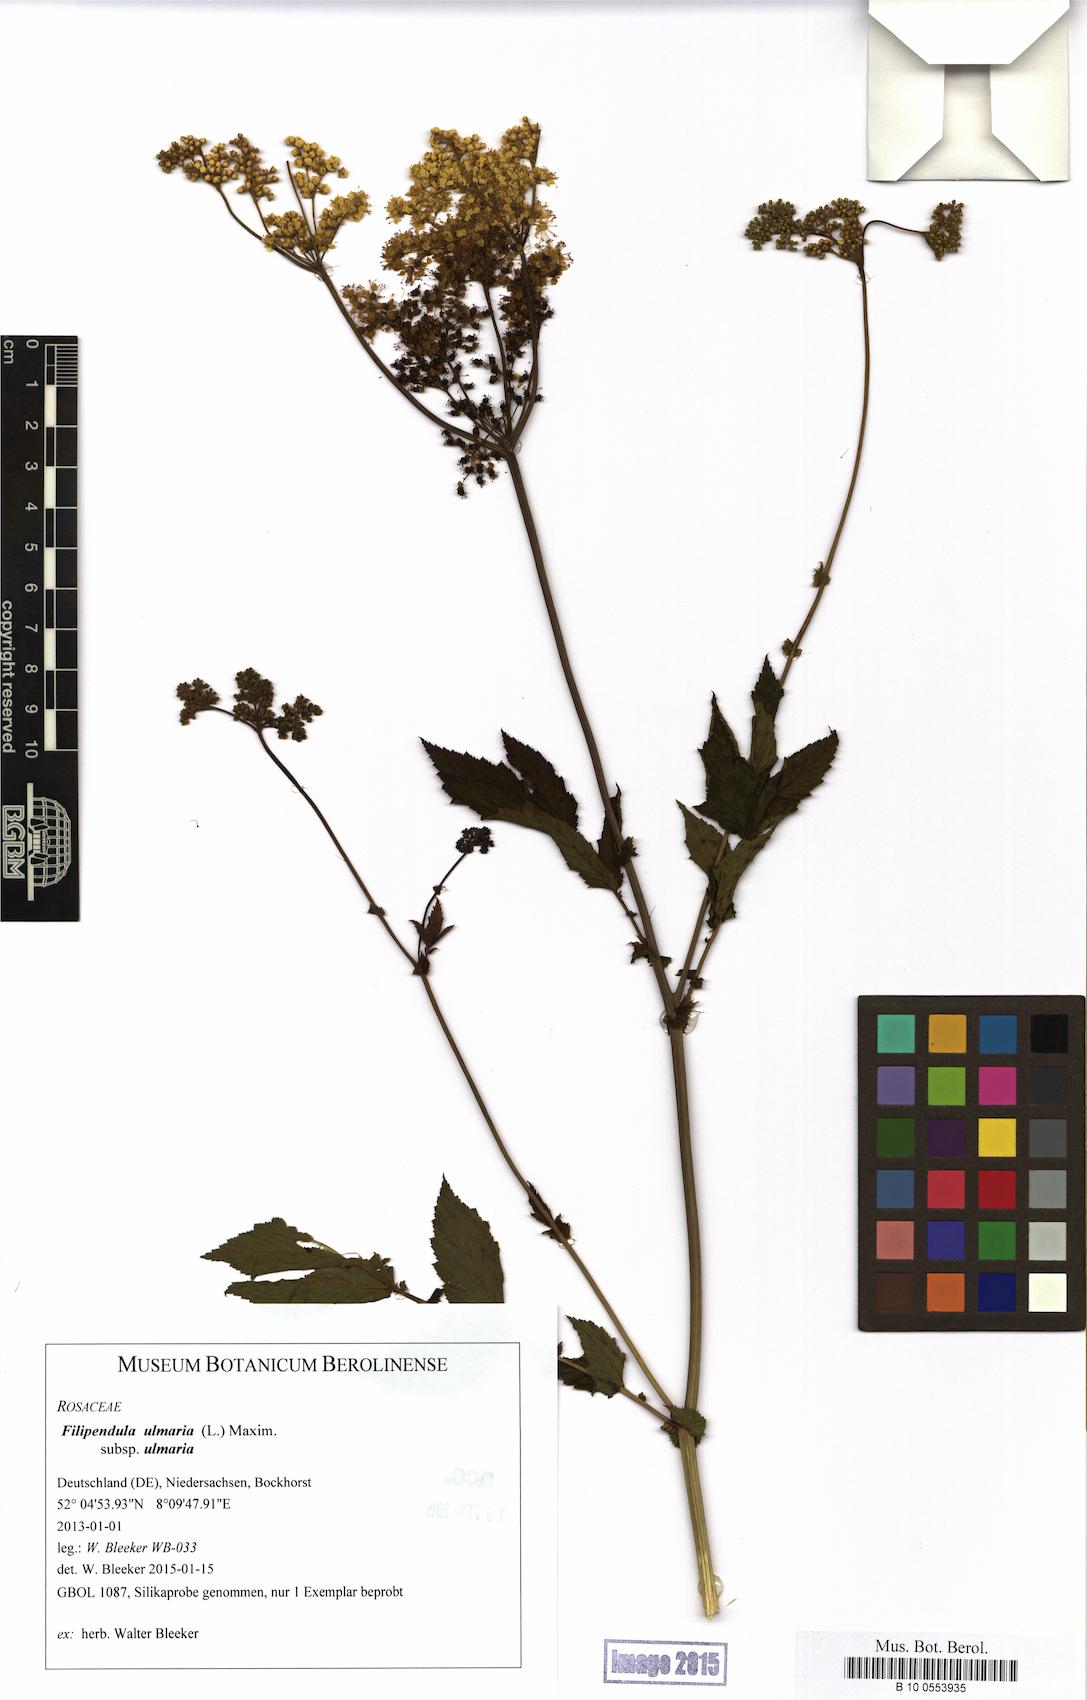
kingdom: Plantae
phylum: Tracheophyta
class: Magnoliopsida
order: Rosales
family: Rosaceae
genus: Filipendula
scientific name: Filipendula ulmaria
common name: Meadowsweet
